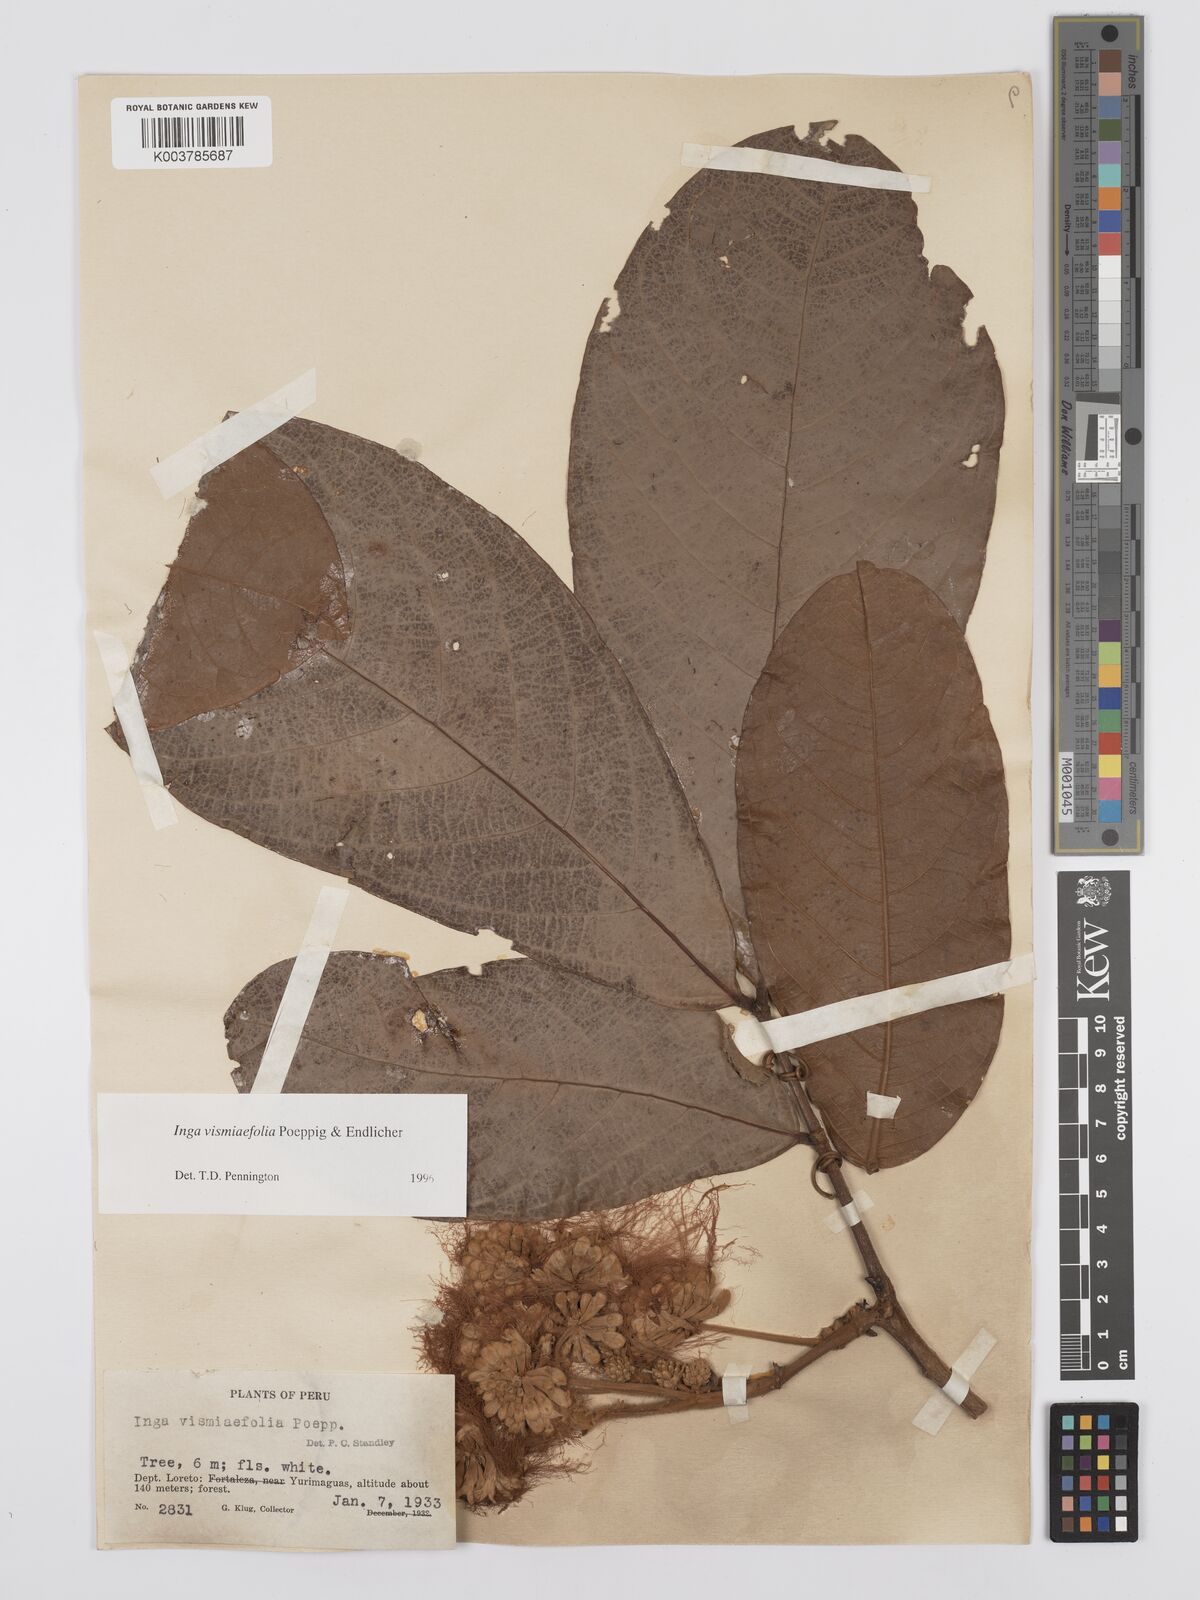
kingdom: Plantae
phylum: Tracheophyta
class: Magnoliopsida
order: Fabales
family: Fabaceae
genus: Inga
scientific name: Inga vismiifolia
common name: Howler monkey inga
